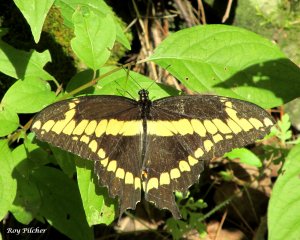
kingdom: Animalia
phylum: Arthropoda
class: Insecta
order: Lepidoptera
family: Papilionidae
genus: Papilio
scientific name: Papilio cresphontes
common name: Eastern Giant Swallowtail
